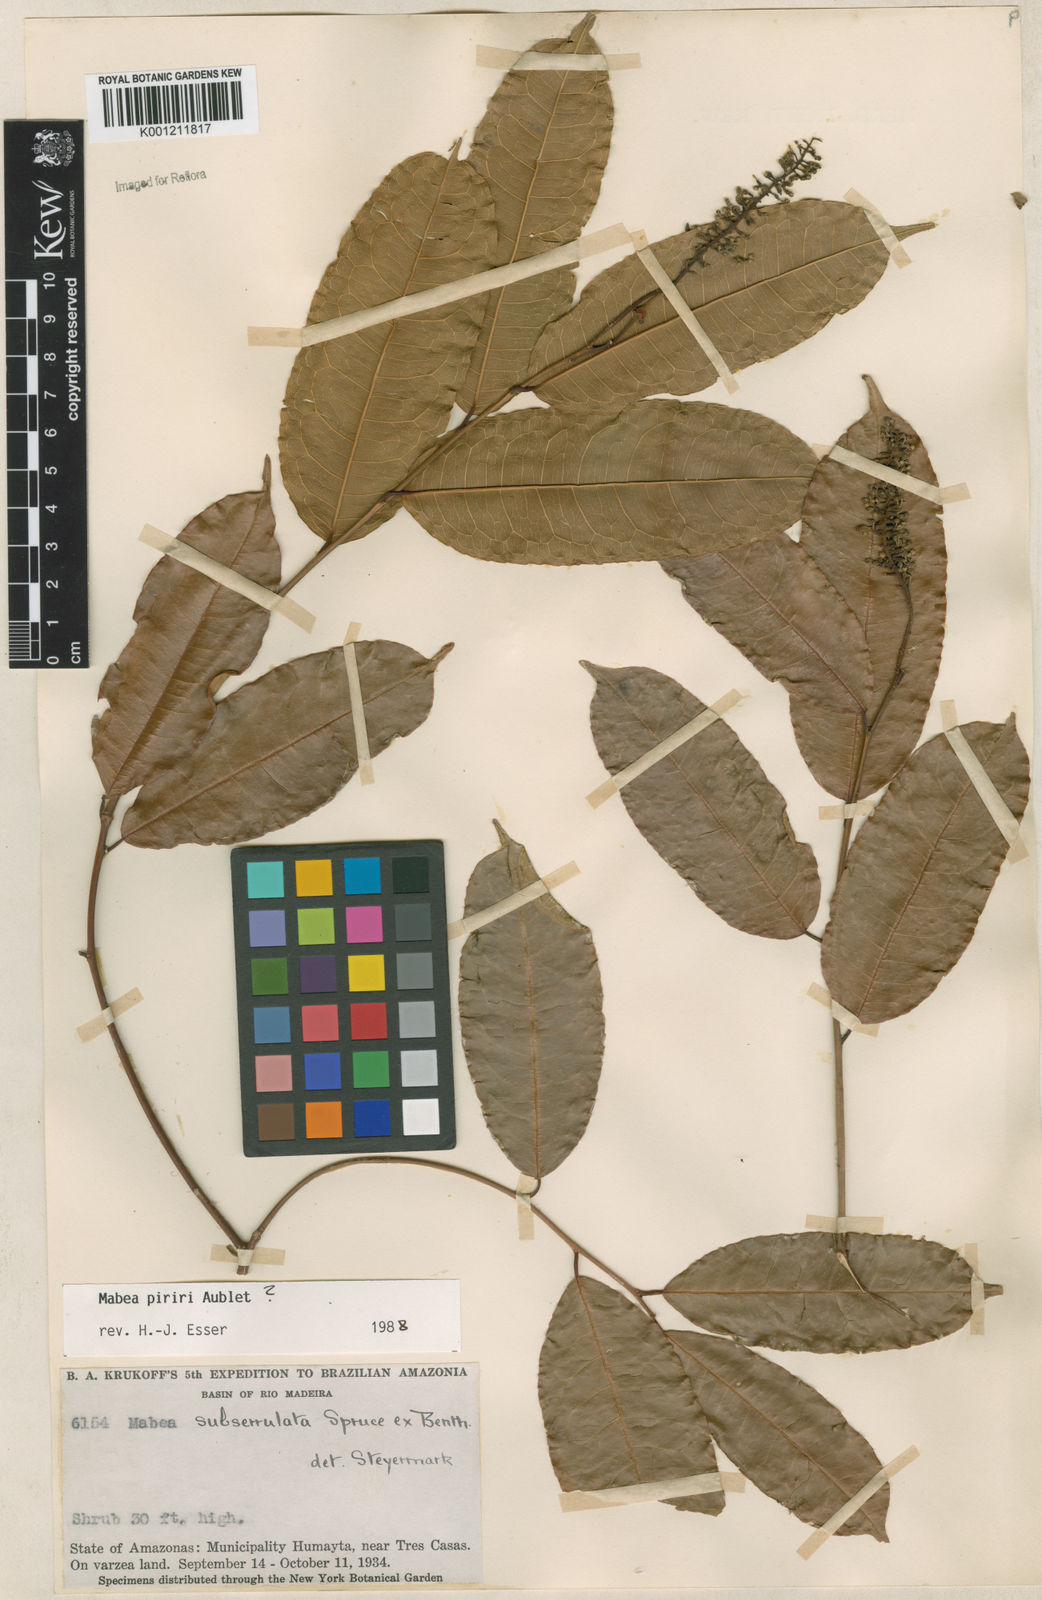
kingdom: Plantae
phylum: Tracheophyta
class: Magnoliopsida
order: Malpighiales
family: Euphorbiaceae
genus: Mabea
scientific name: Mabea subserrulata
